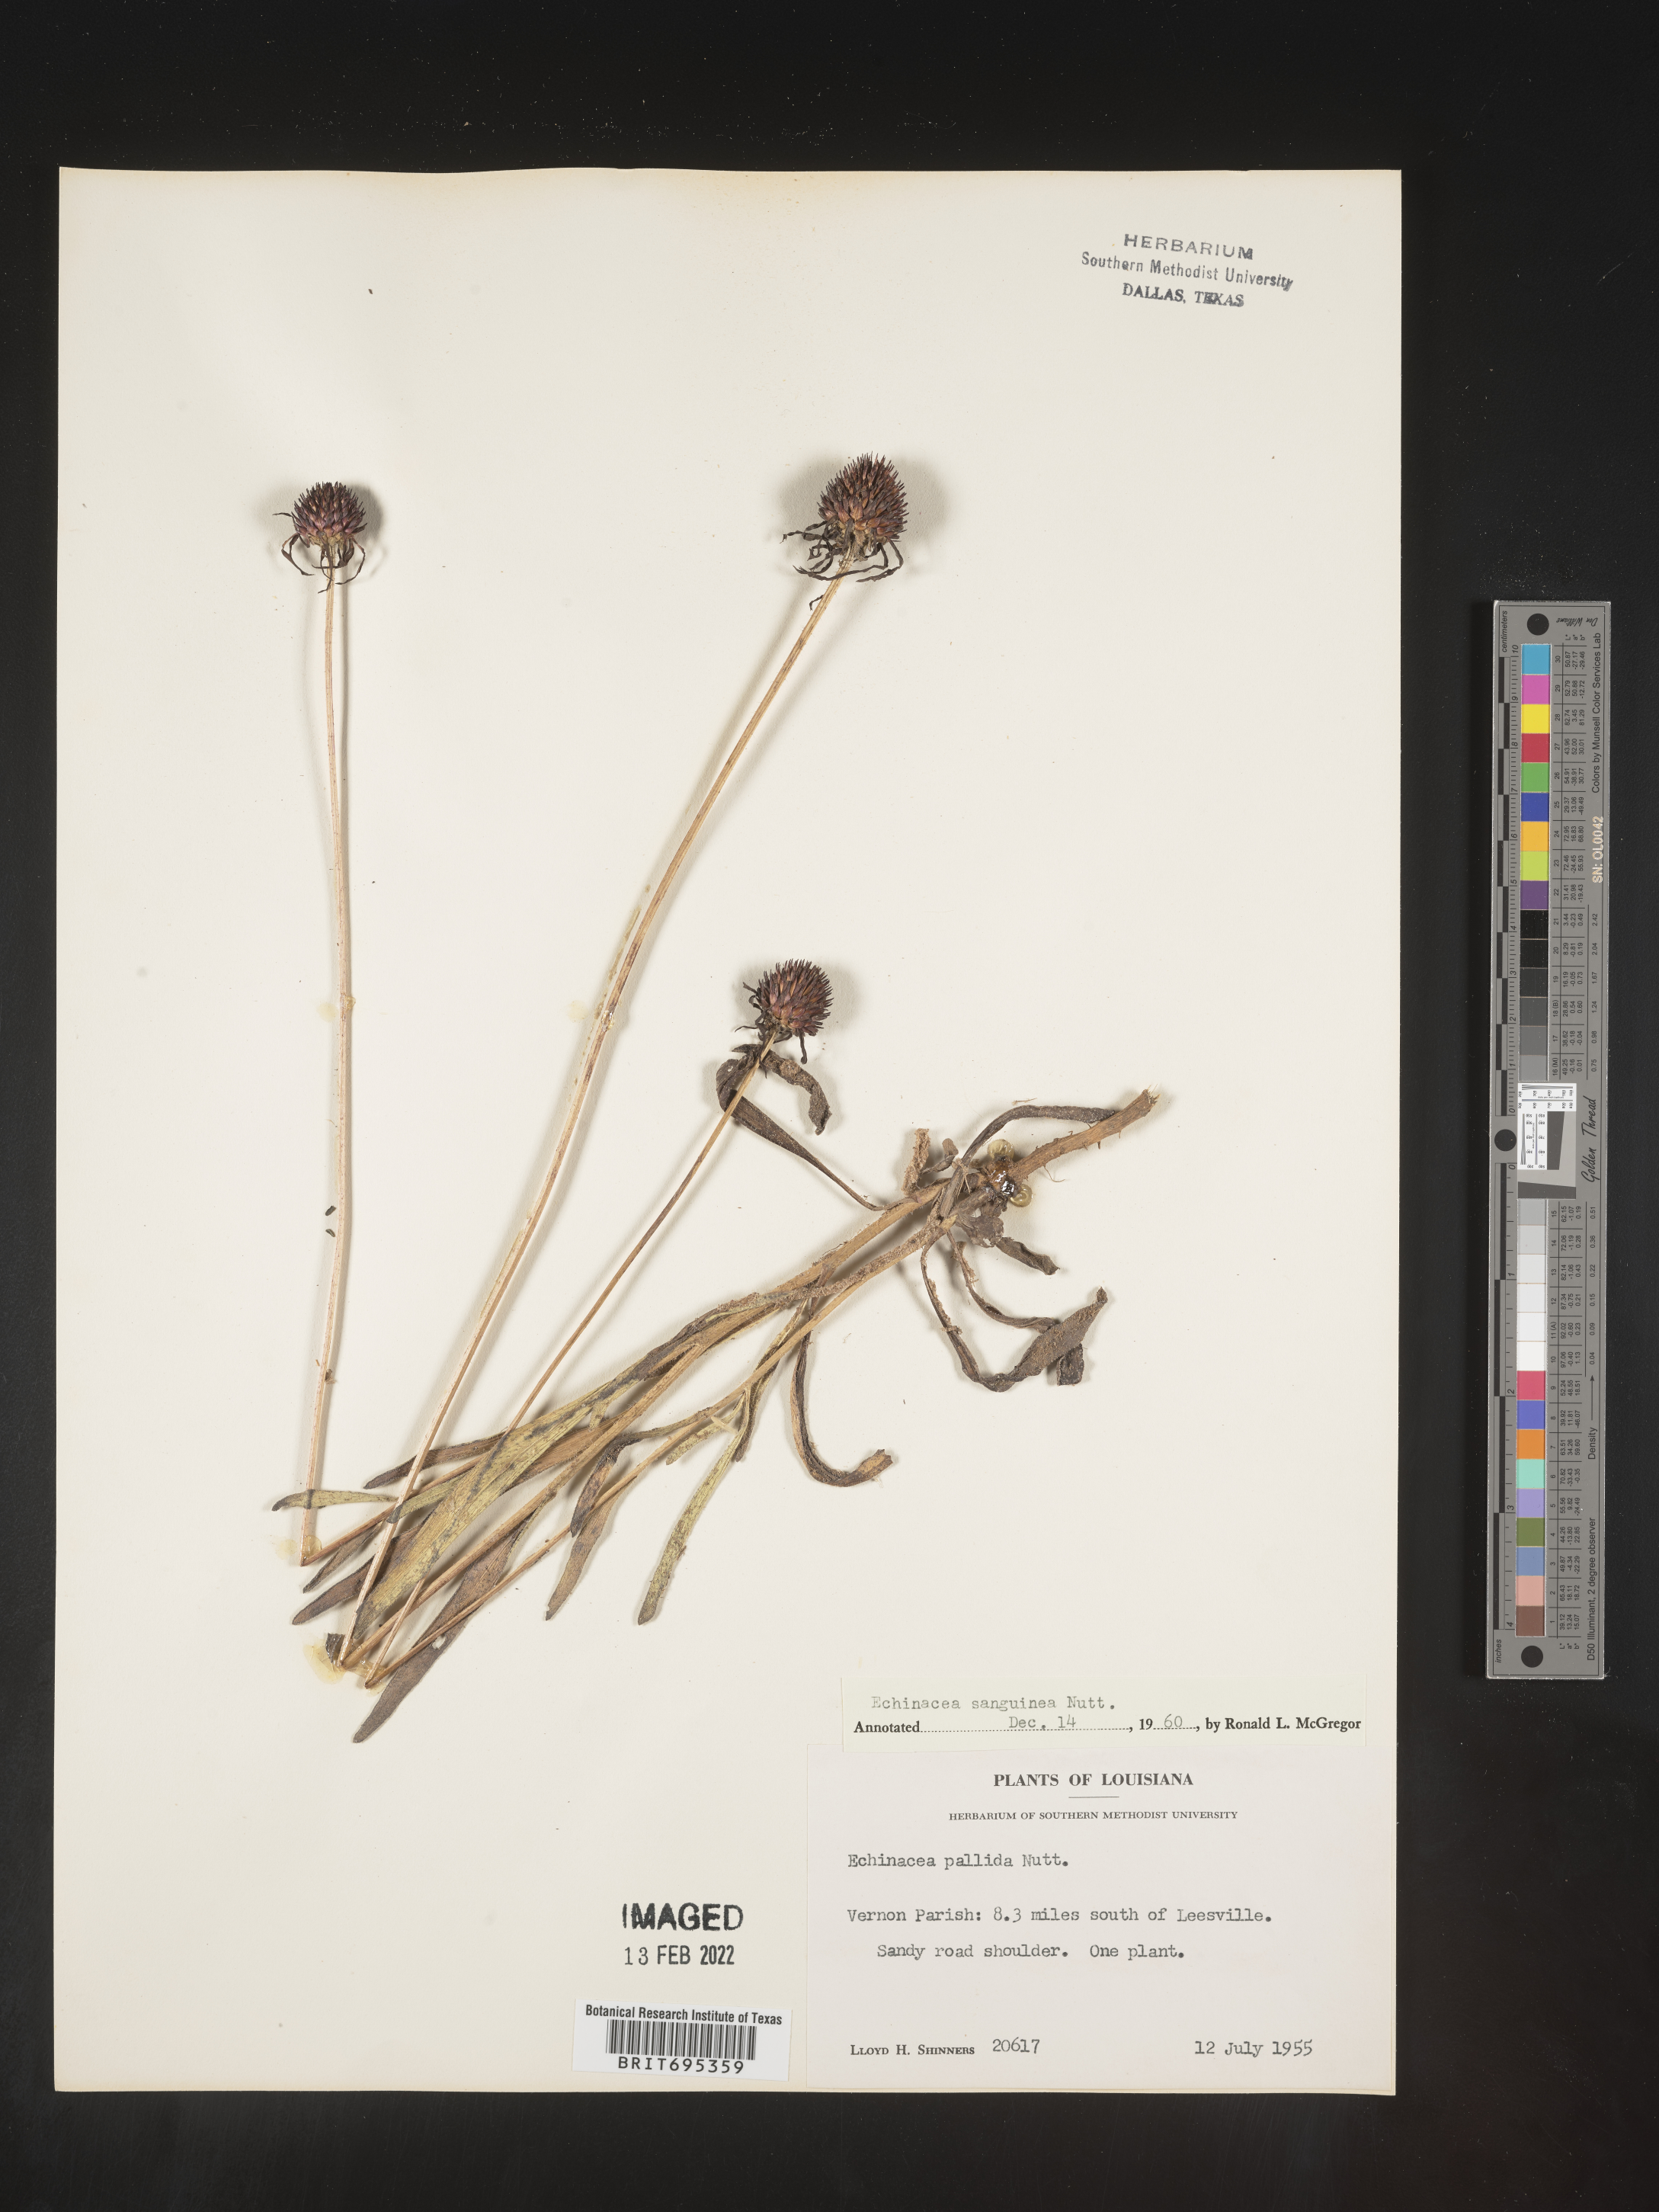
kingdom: Plantae
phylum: Tracheophyta
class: Magnoliopsida
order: Asterales
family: Asteraceae
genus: Echinacea
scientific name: Echinacea sanguinea
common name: Sanguine purple-coneflower
